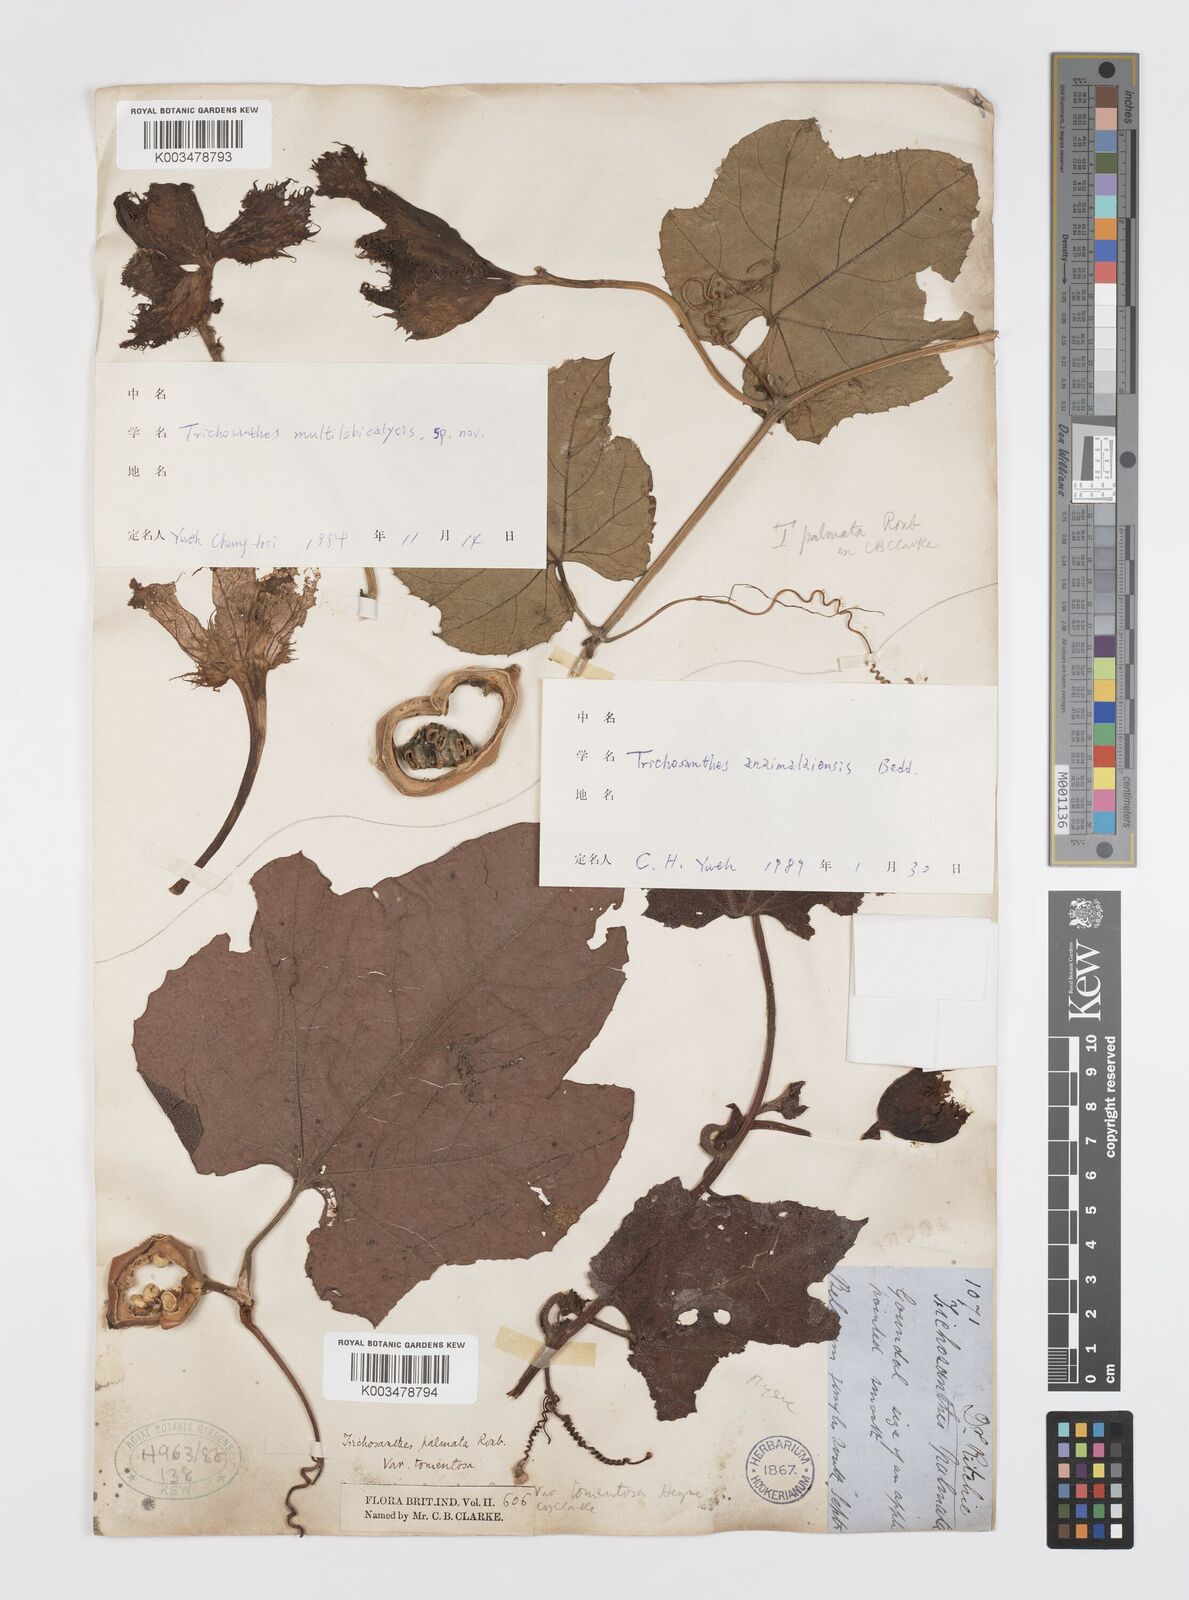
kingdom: Plantae
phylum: Tracheophyta
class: Magnoliopsida
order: Cucurbitales
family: Cucurbitaceae
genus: Trichosanthes
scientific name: Trichosanthes anaimalaiensis
